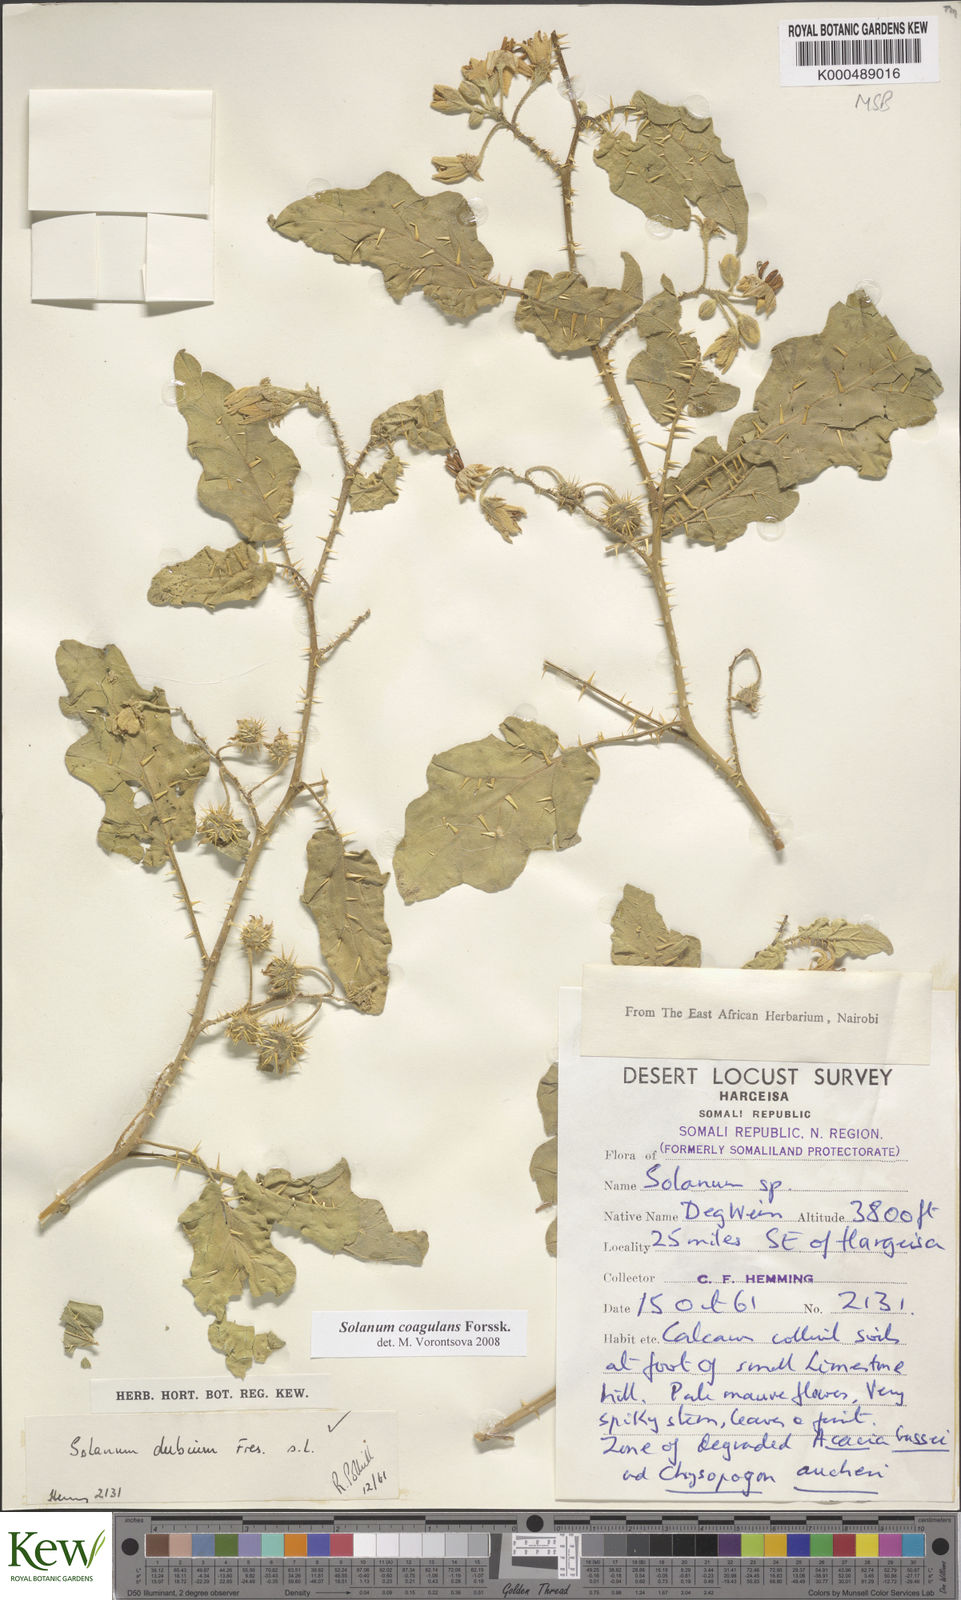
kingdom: Plantae
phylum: Tracheophyta
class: Magnoliopsida
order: Solanales
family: Solanaceae
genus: Solanum
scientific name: Solanum coagulans
